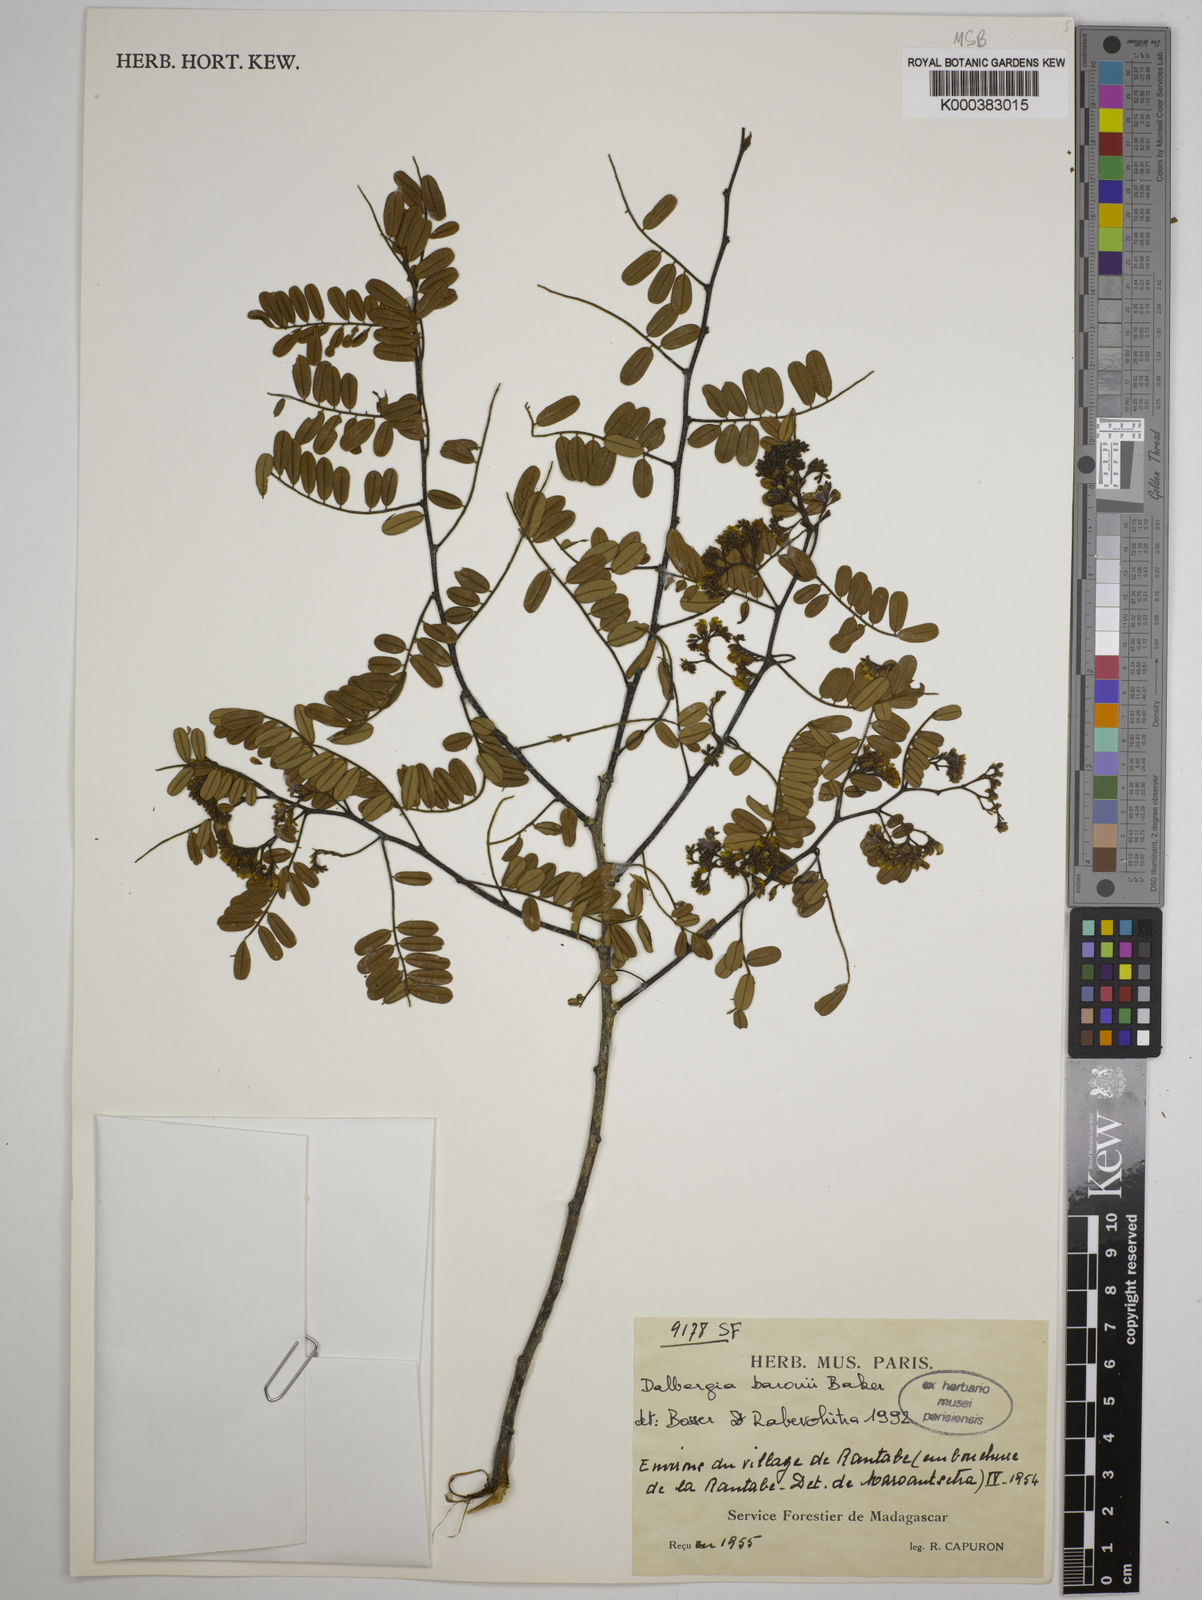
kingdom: Plantae
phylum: Tracheophyta
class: Magnoliopsida
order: Fabales
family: Fabaceae
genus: Dalbergia
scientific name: Dalbergia baronii
